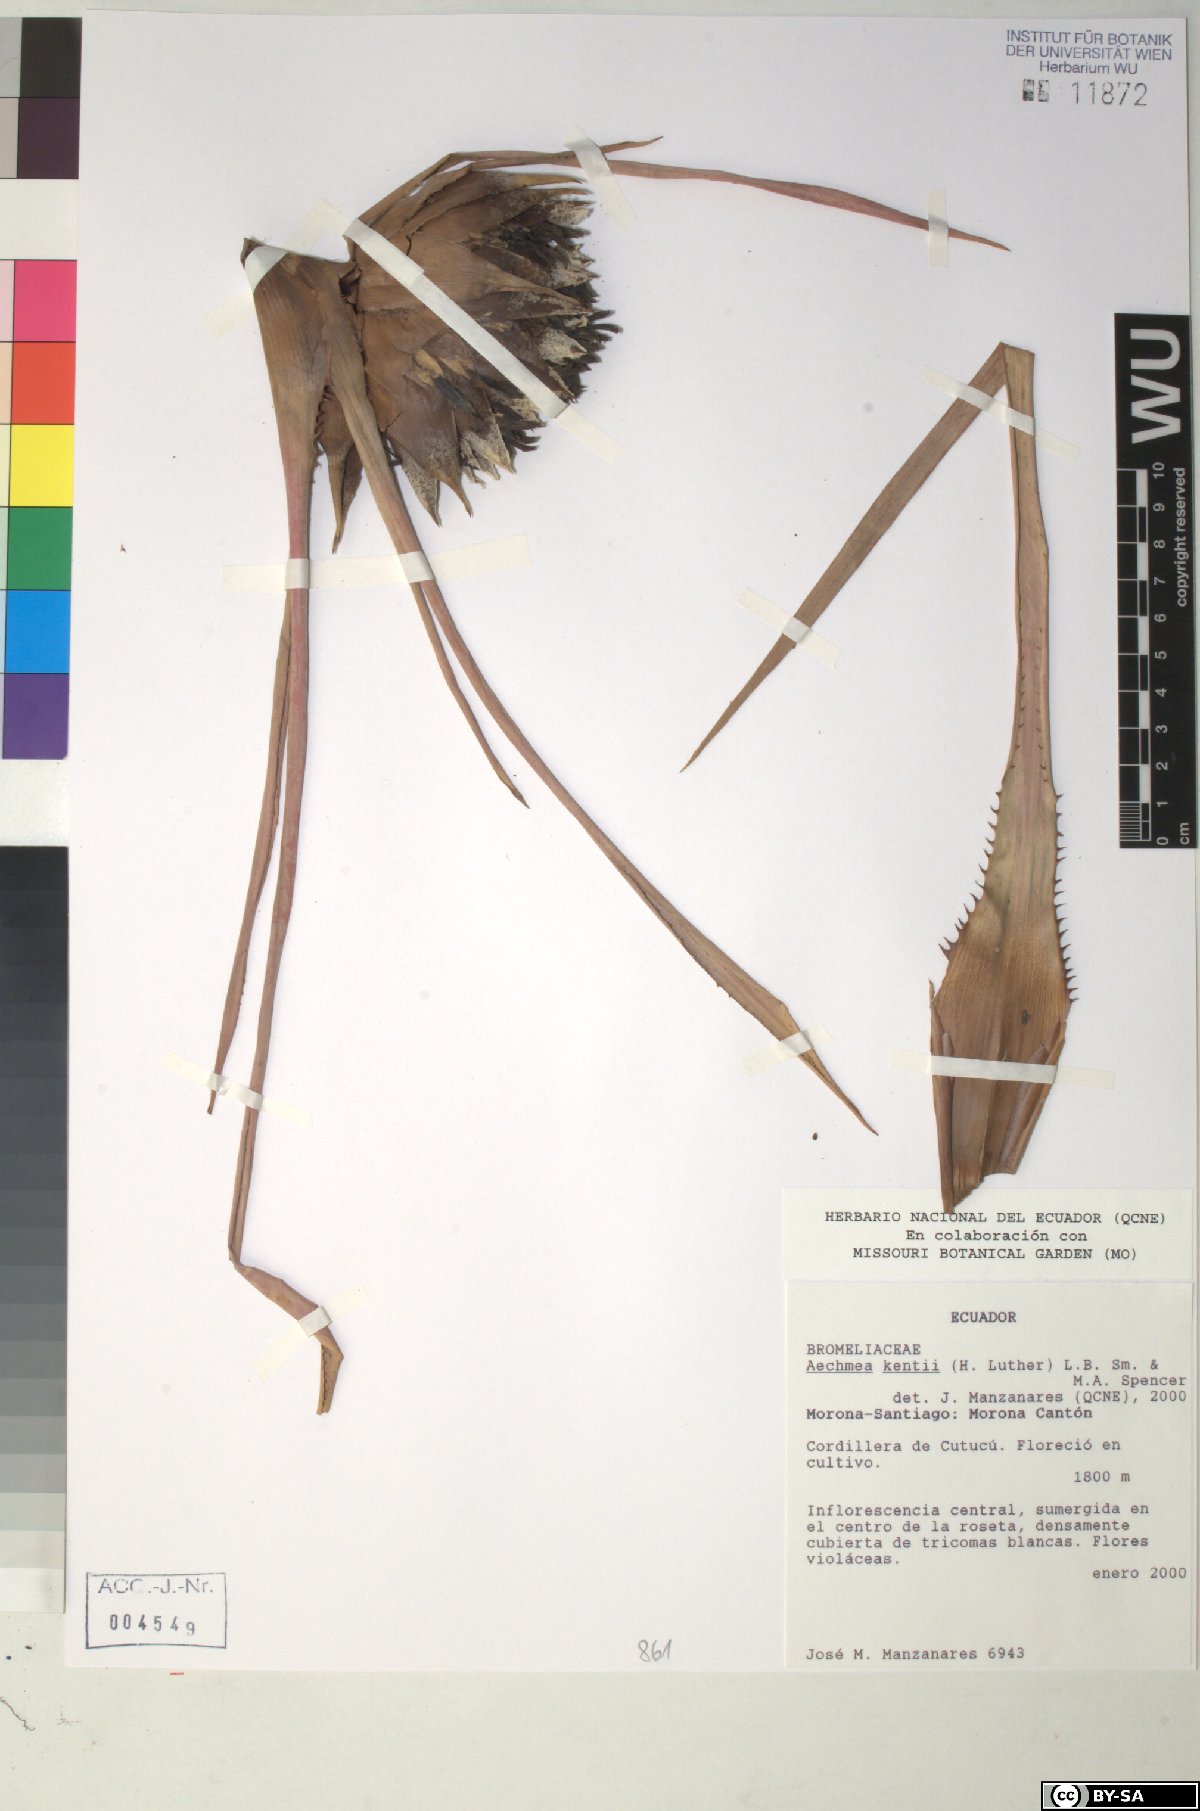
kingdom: Plantae
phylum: Tracheophyta
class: Liliopsida
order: Poales
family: Bromeliaceae
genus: Aechmea
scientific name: Aechmea kentii
